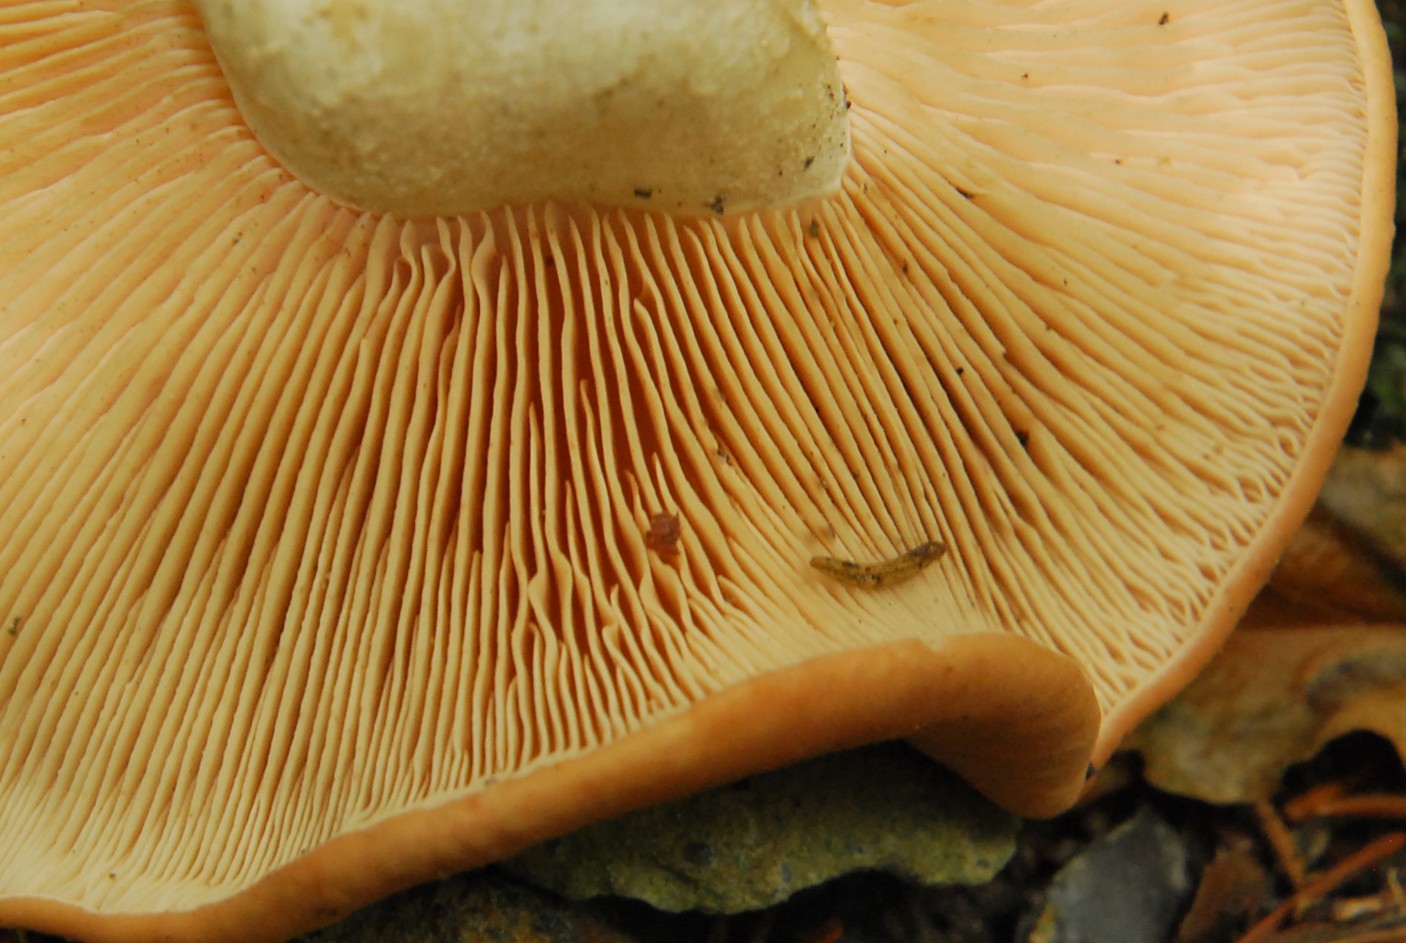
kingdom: Fungi
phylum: Basidiomycota
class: Agaricomycetes
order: Agaricales
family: Entolomataceae
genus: Clitopilus
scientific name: Clitopilus geminus
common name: kødfarvet troldhat
